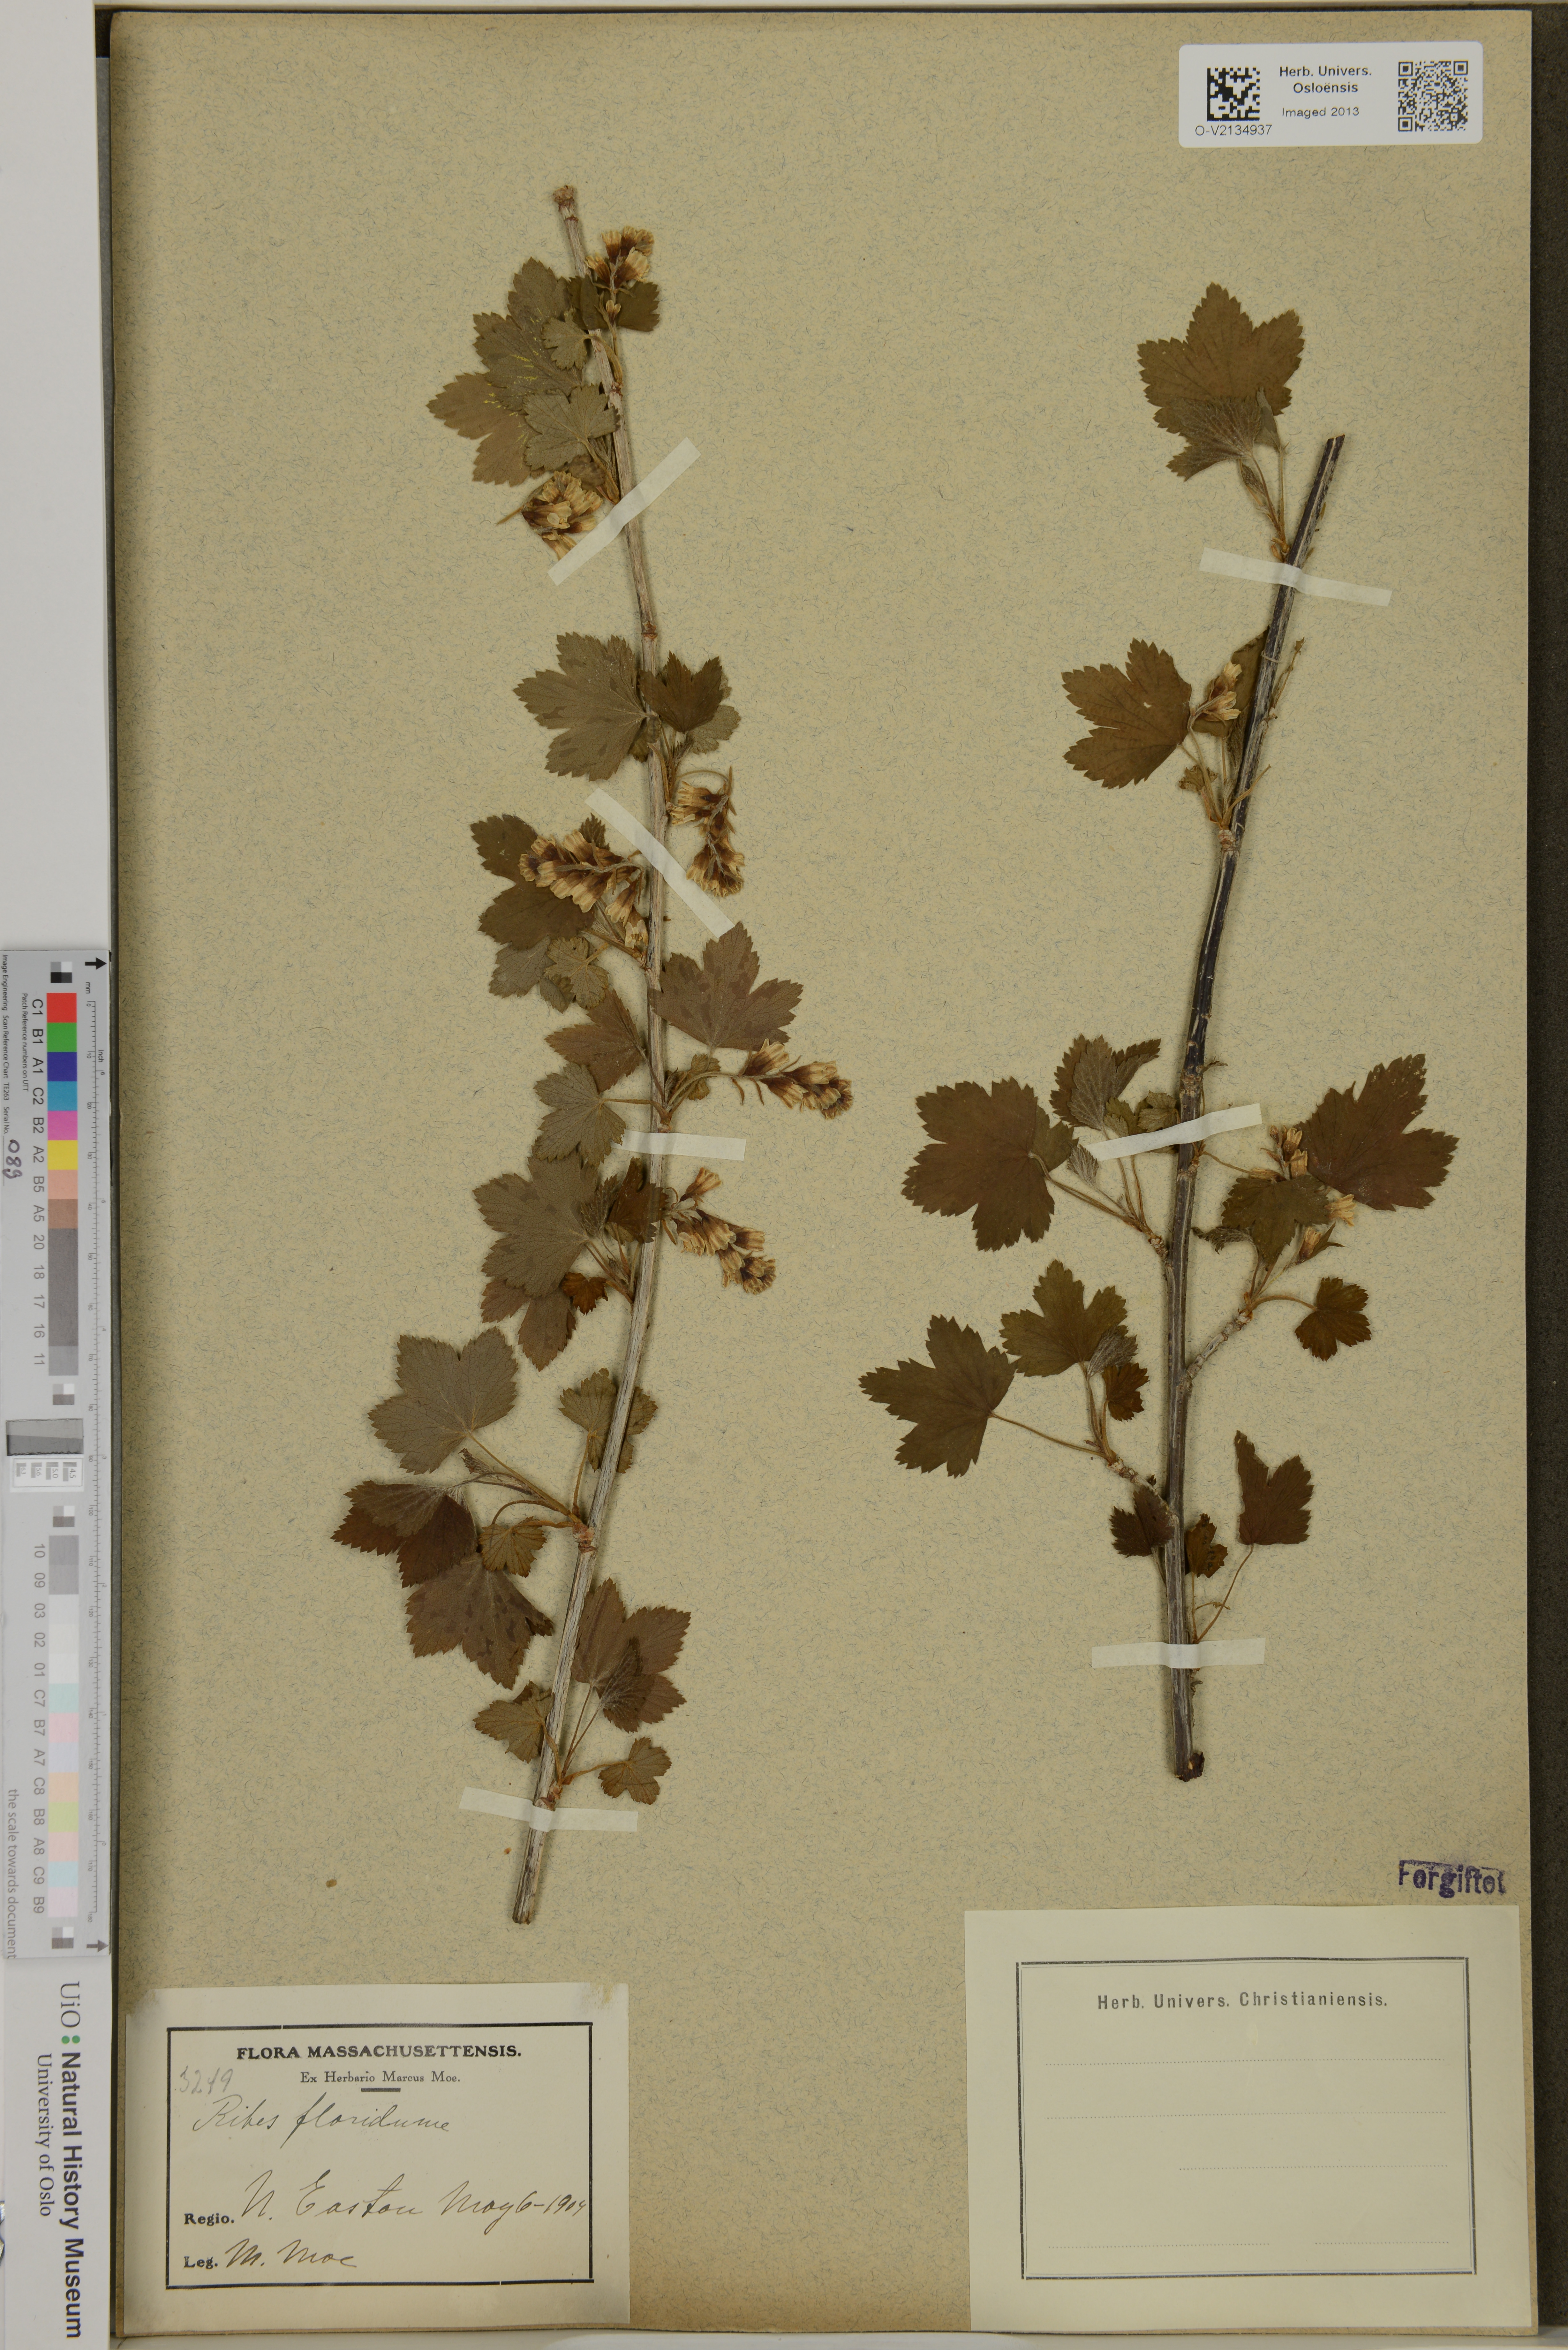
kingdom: Plantae
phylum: Tracheophyta
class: Magnoliopsida
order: Saxifragales
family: Grossulariaceae
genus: Ribes
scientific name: Ribes
